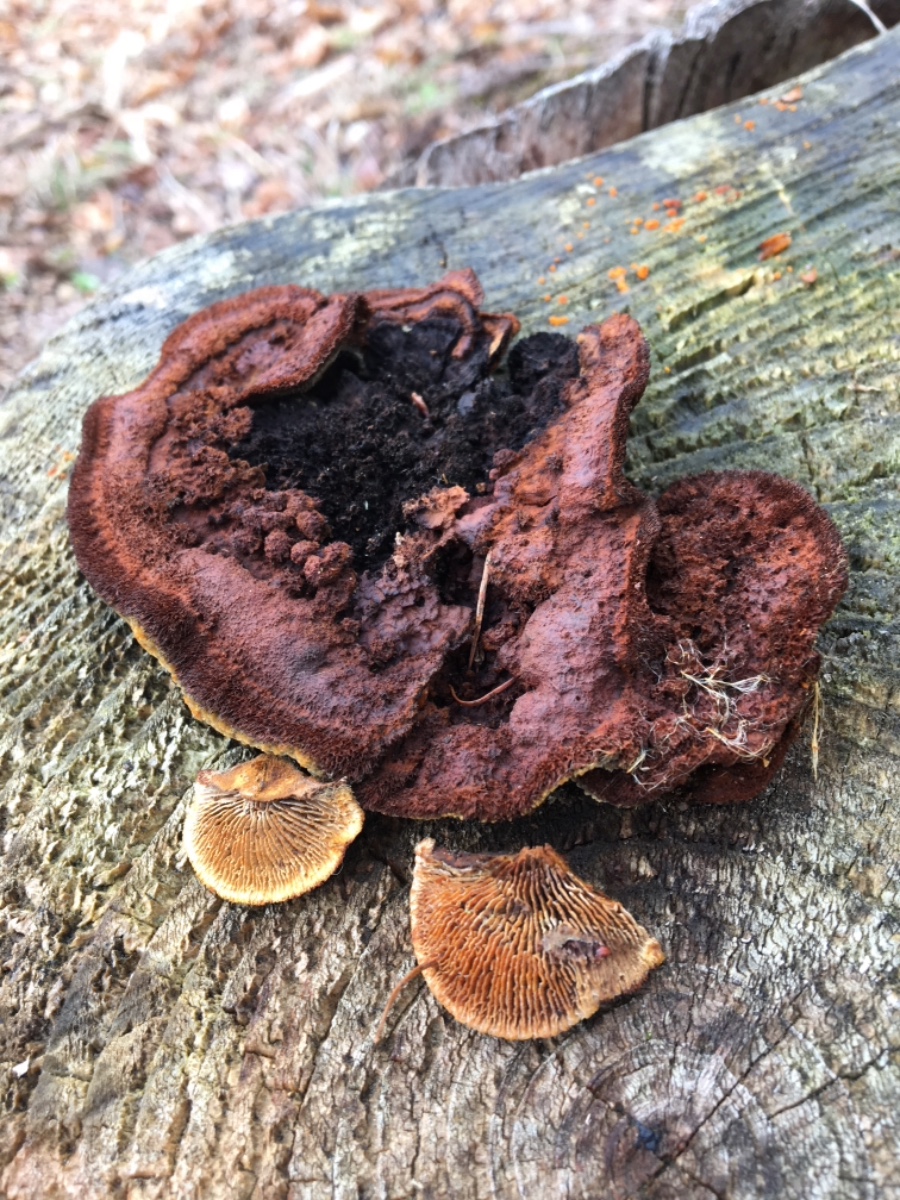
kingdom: Fungi
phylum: Basidiomycota
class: Agaricomycetes
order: Gloeophyllales
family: Gloeophyllaceae
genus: Gloeophyllum
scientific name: Gloeophyllum sepiarium
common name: fyrre-korkhat
